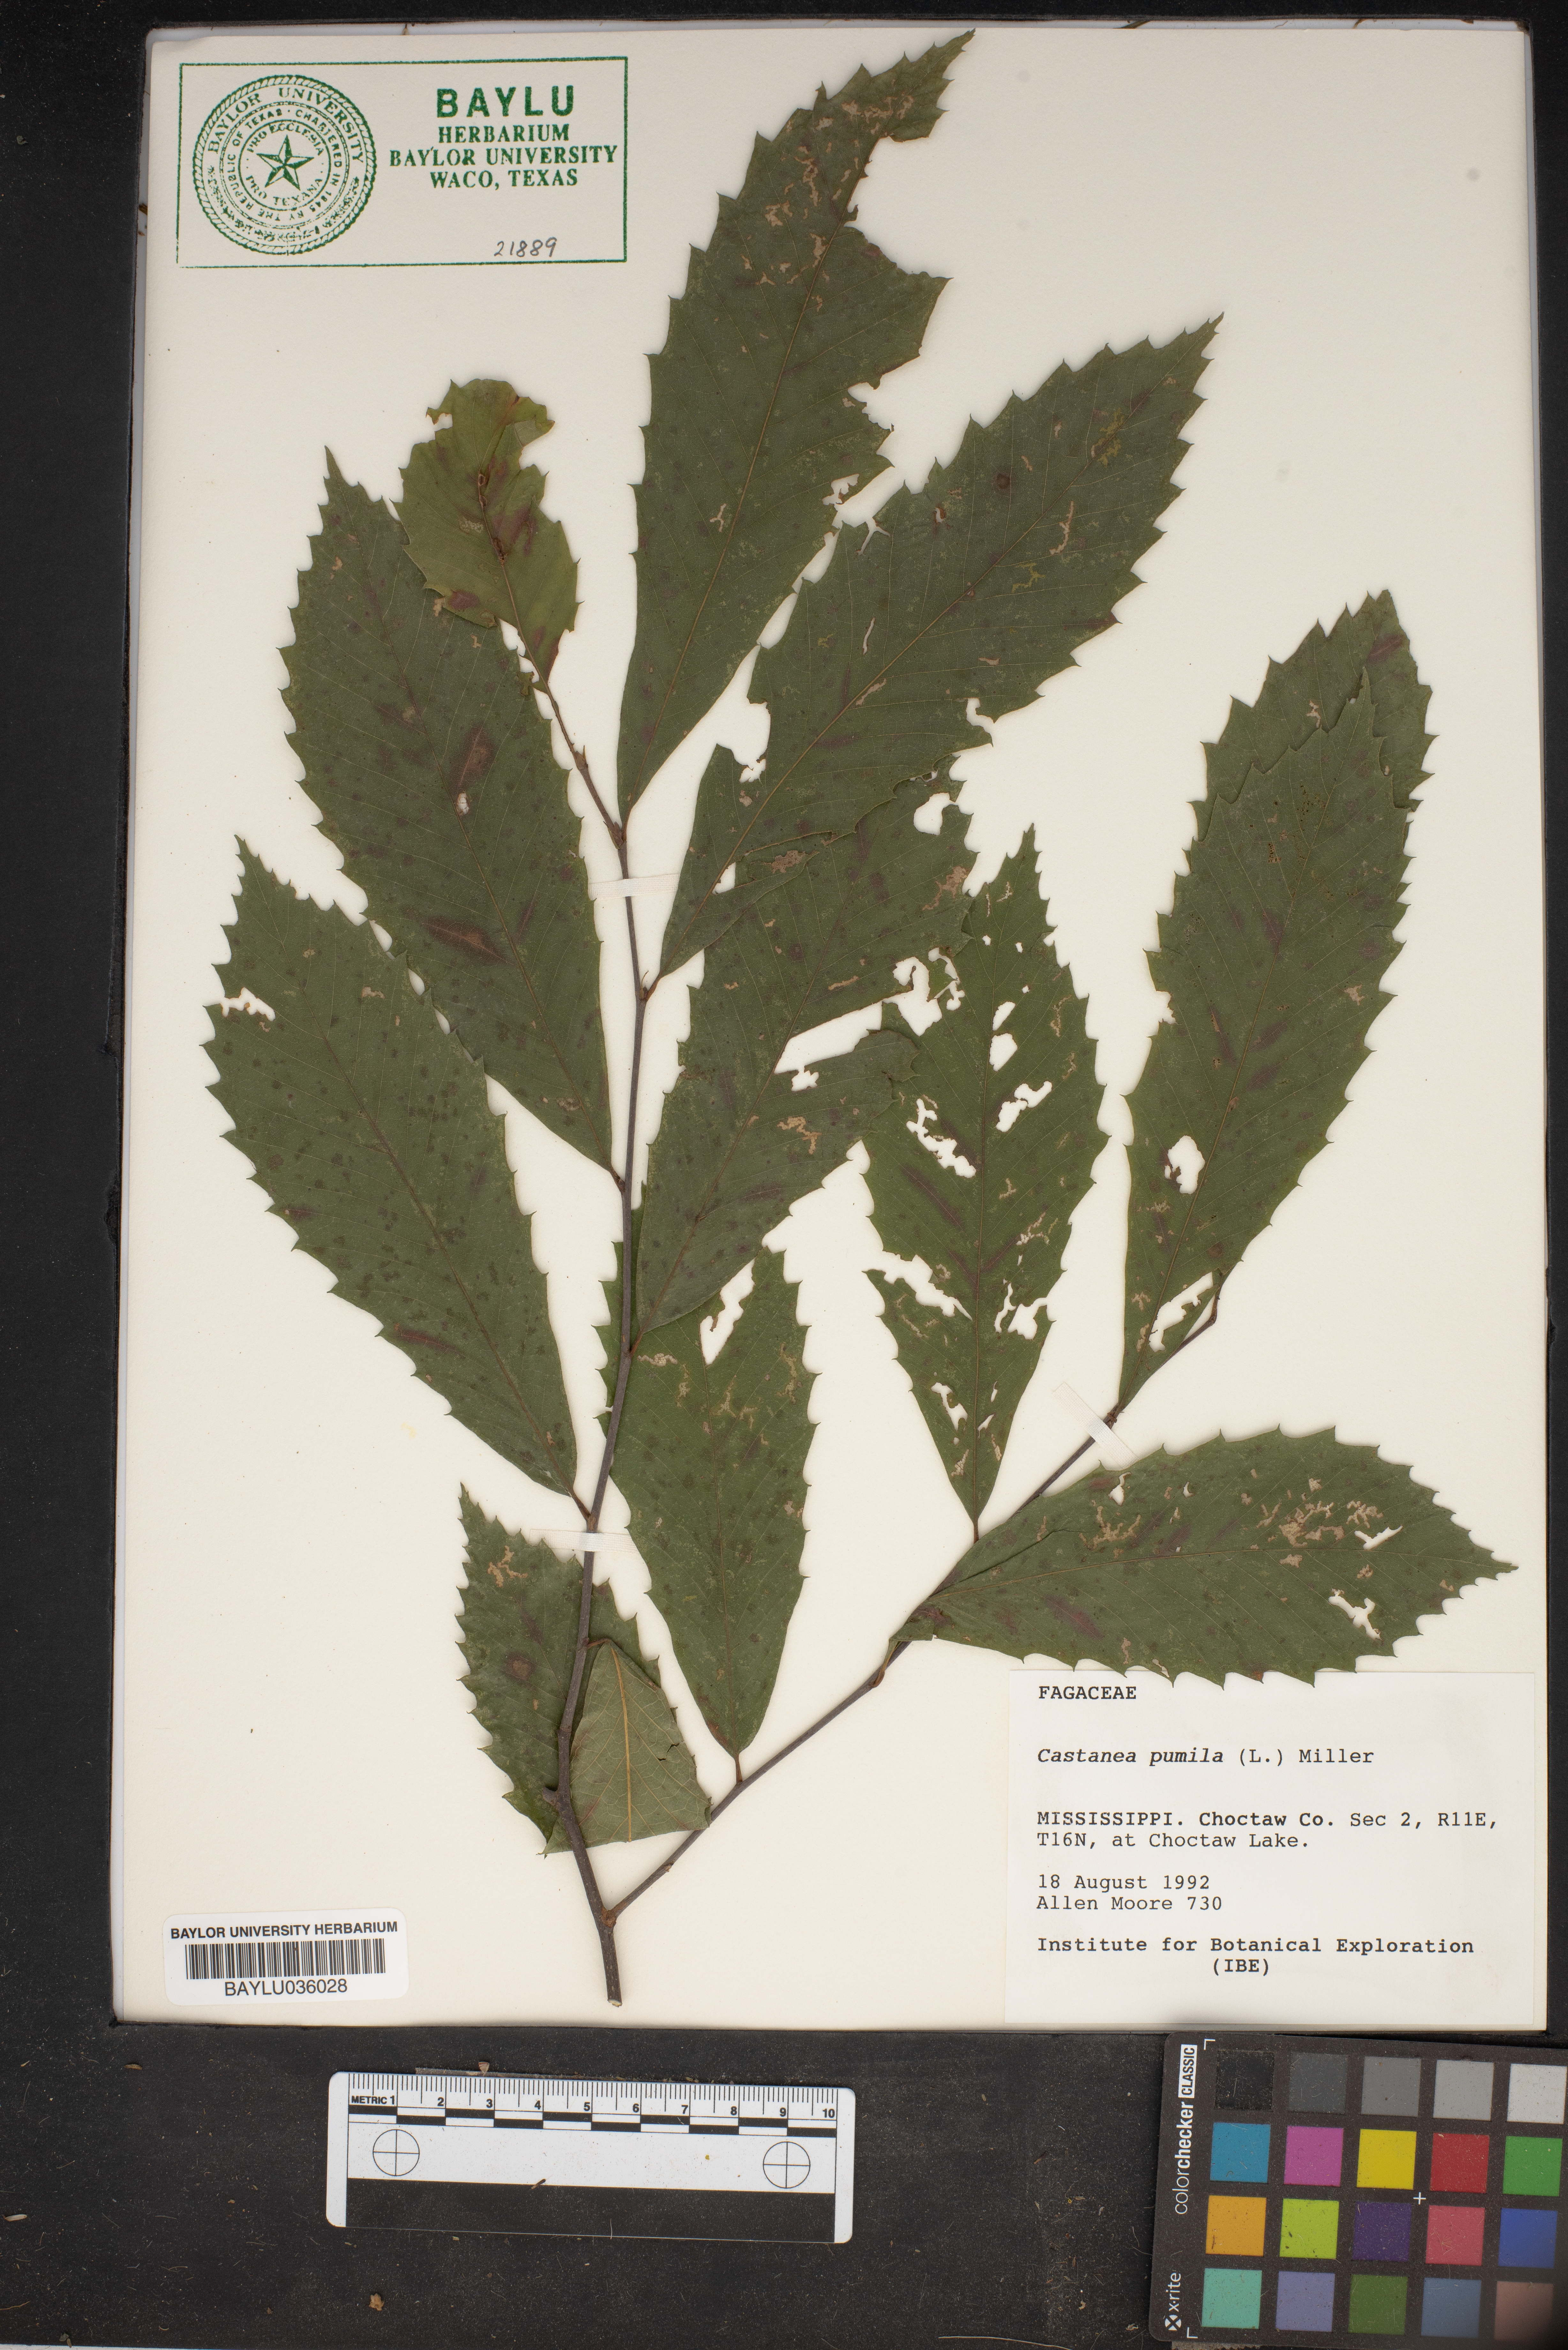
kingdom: Plantae
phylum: Tracheophyta
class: Magnoliopsida
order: Fagales
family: Fagaceae
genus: Castanea
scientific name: Castanea pumila
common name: Chinkapin
